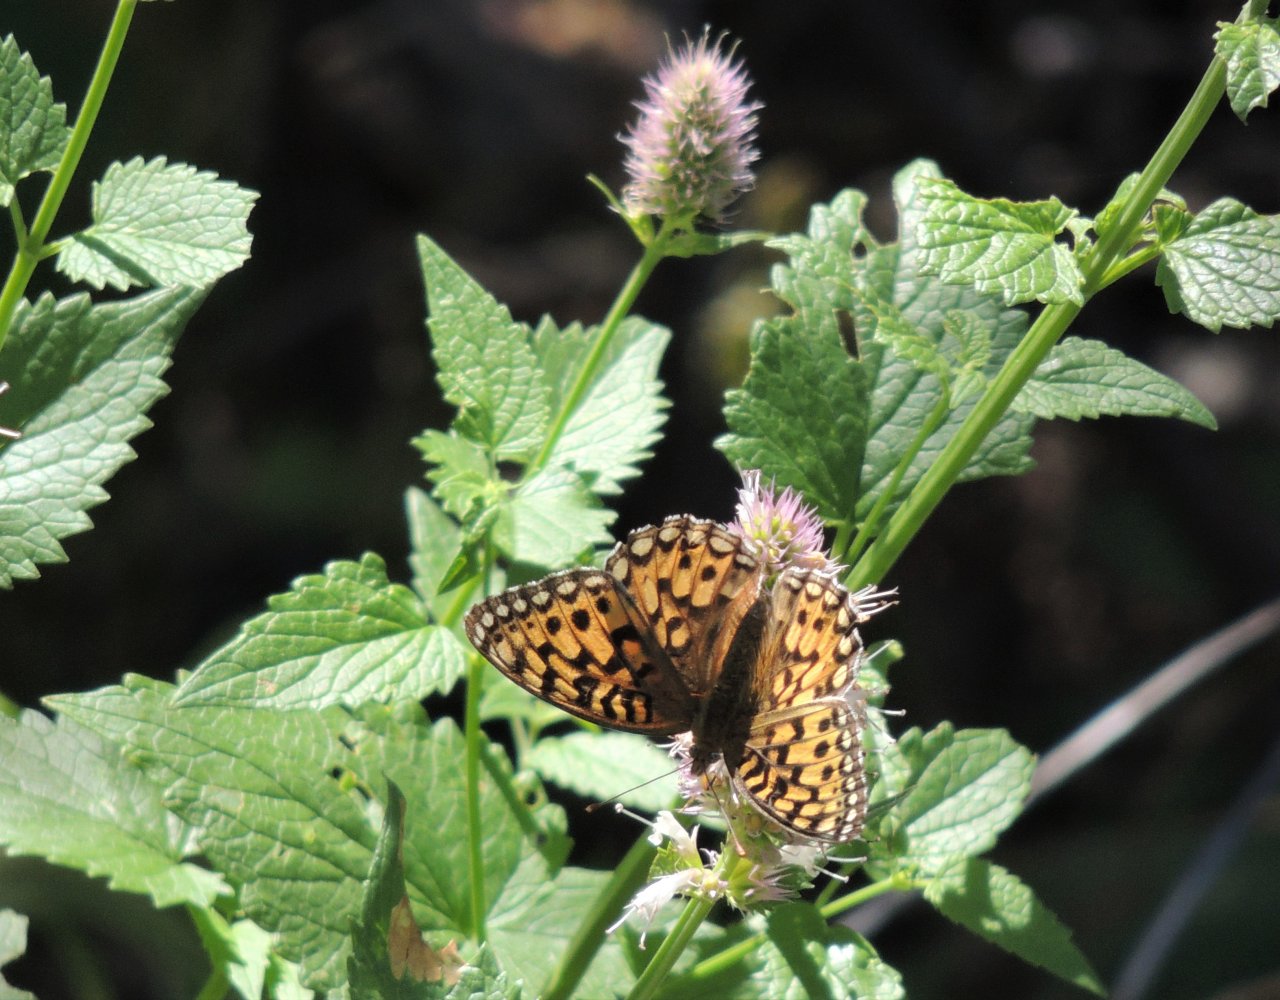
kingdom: Animalia
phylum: Arthropoda
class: Insecta
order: Lepidoptera
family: Nymphalidae
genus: Speyeria
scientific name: Speyeria mormonia
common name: Mormon Fritillary
